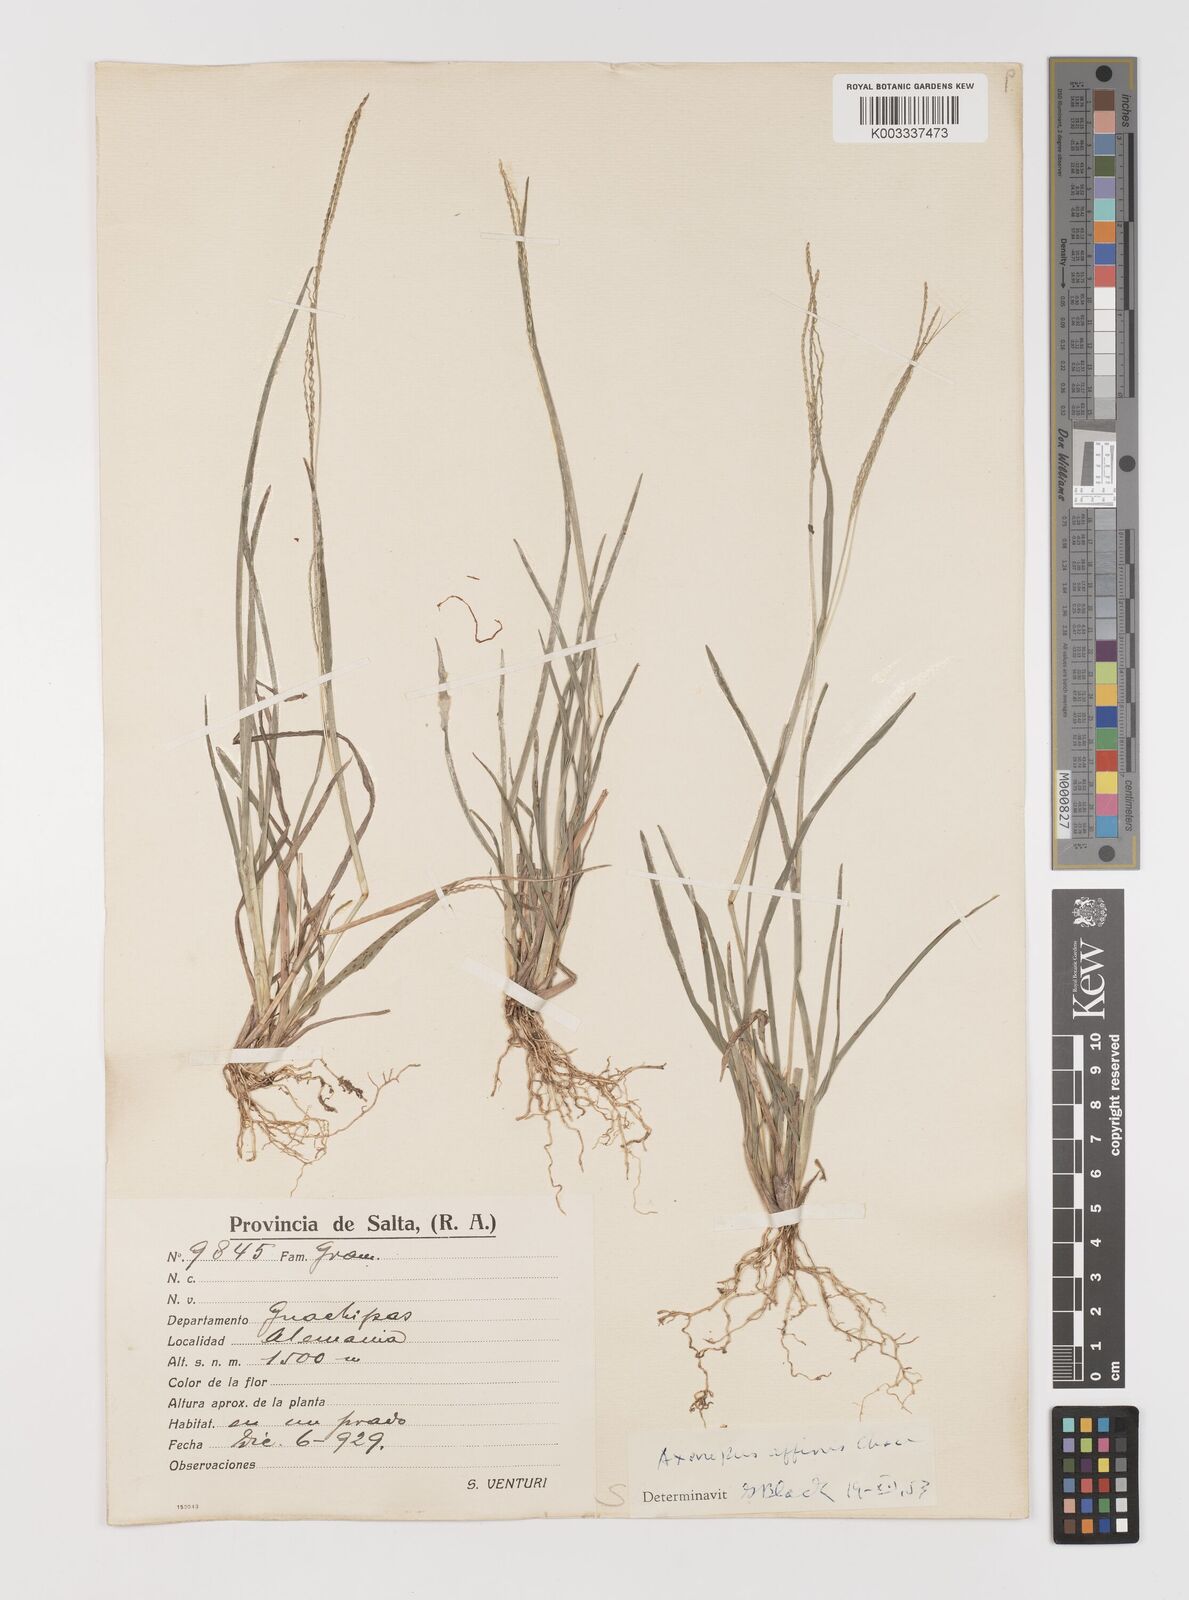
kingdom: Plantae
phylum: Tracheophyta
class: Liliopsida
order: Poales
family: Poaceae
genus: Axonopus
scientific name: Axonopus
